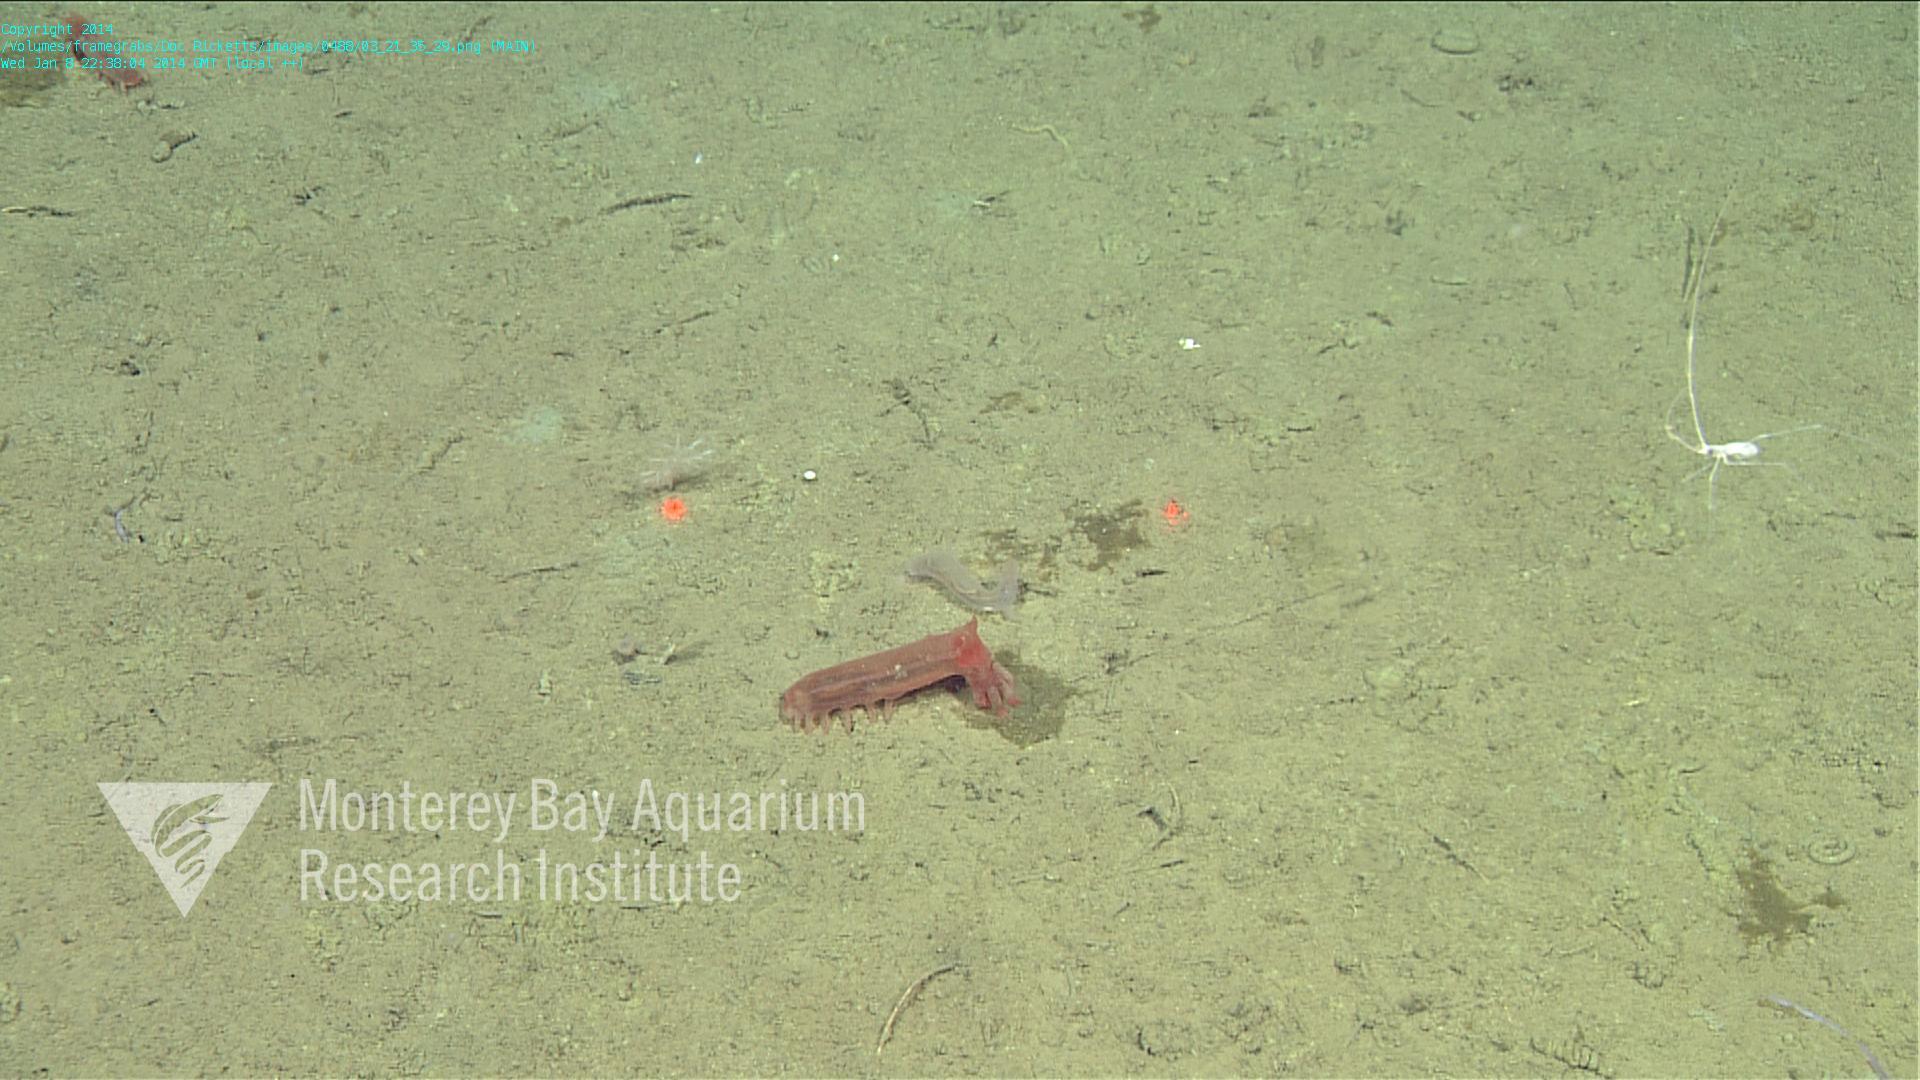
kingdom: Animalia
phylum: Cnidaria
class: Anthozoa
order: Scleralcyonacea
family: Pennatulidae
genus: Pennatula
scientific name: Pennatula
